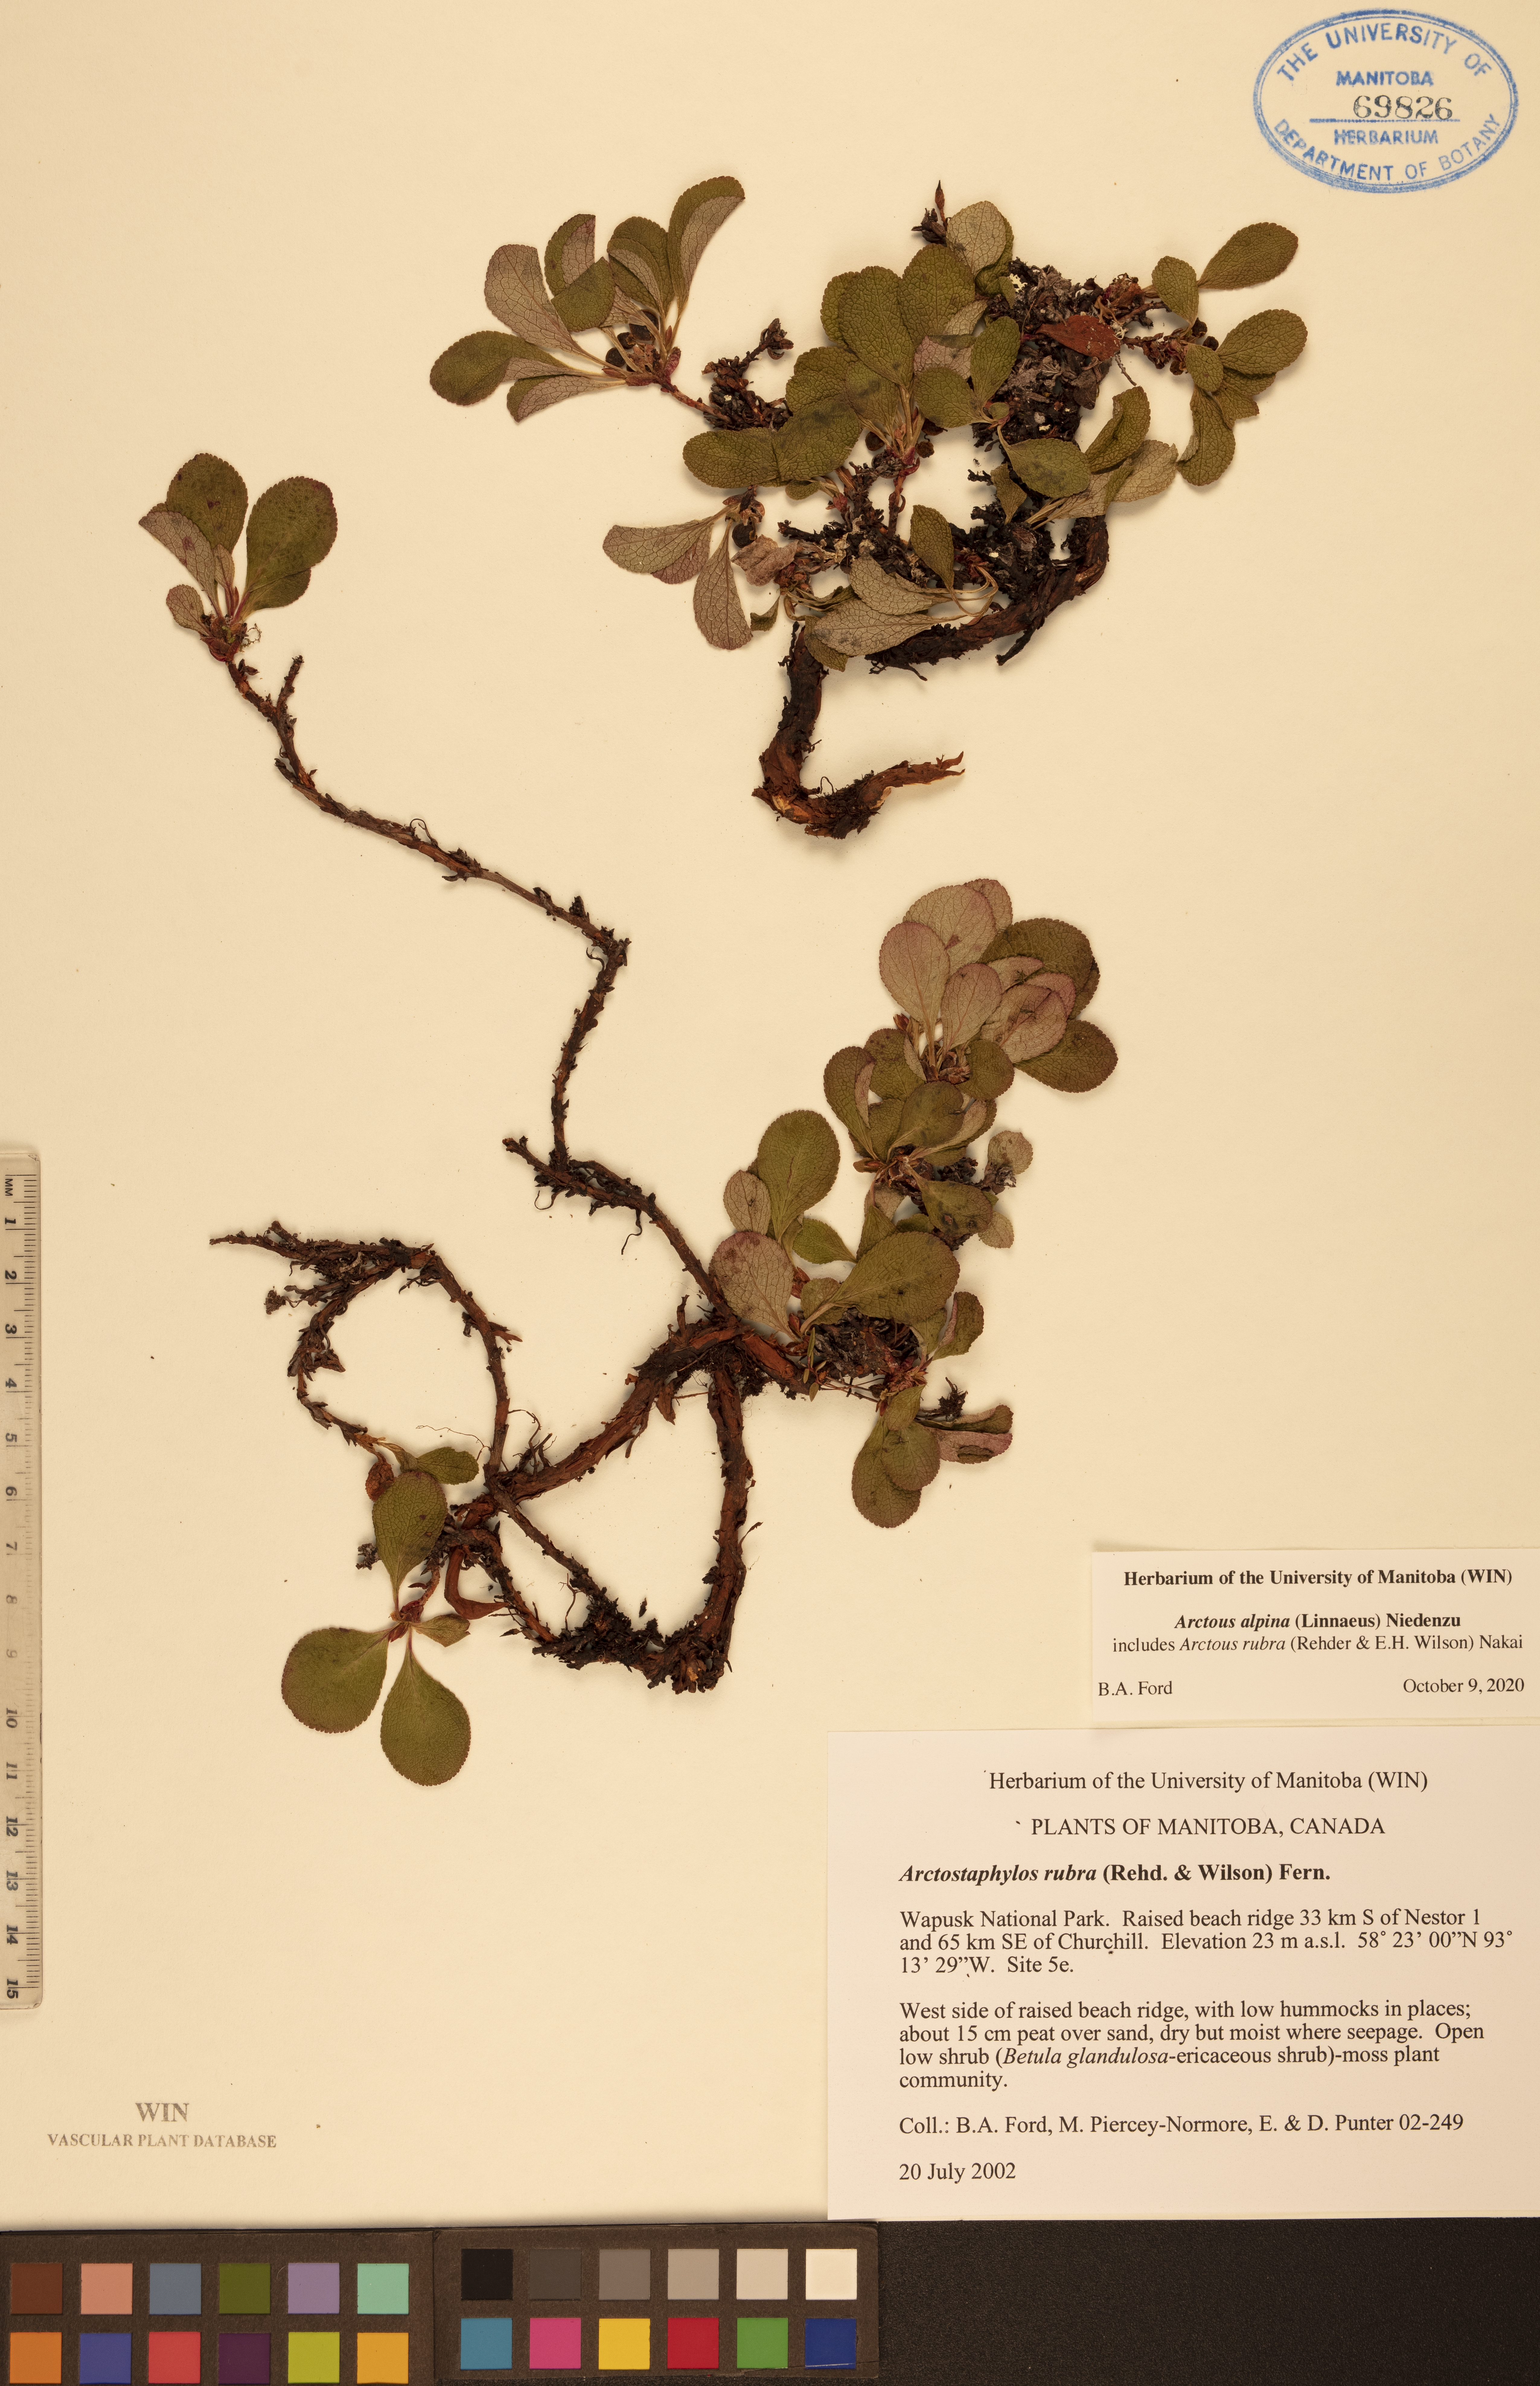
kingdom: Plantae
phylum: Tracheophyta
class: Magnoliopsida
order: Ericales
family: Ericaceae
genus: Arctostaphylos
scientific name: Arctostaphylos alpinus
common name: Alpine bearberry
